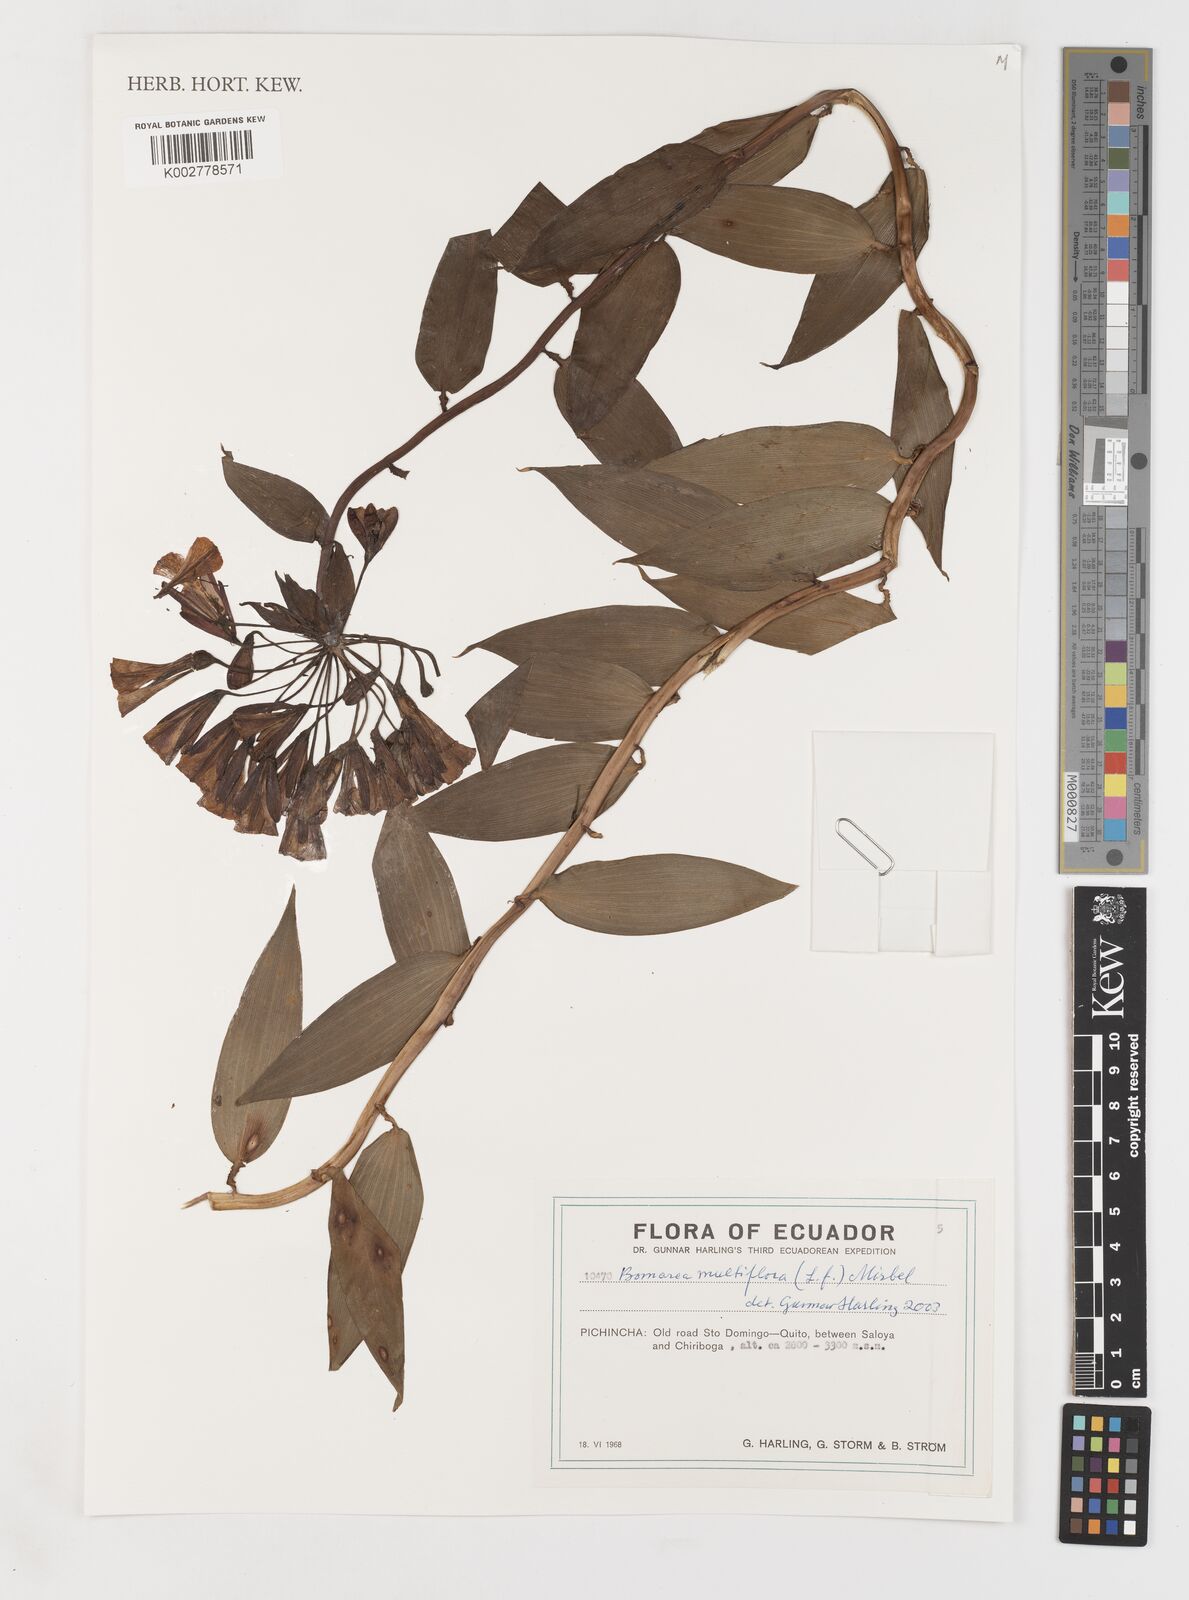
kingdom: Plantae
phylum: Tracheophyta
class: Liliopsida
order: Liliales
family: Alstroemeriaceae
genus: Bomarea
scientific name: Bomarea multiflora
